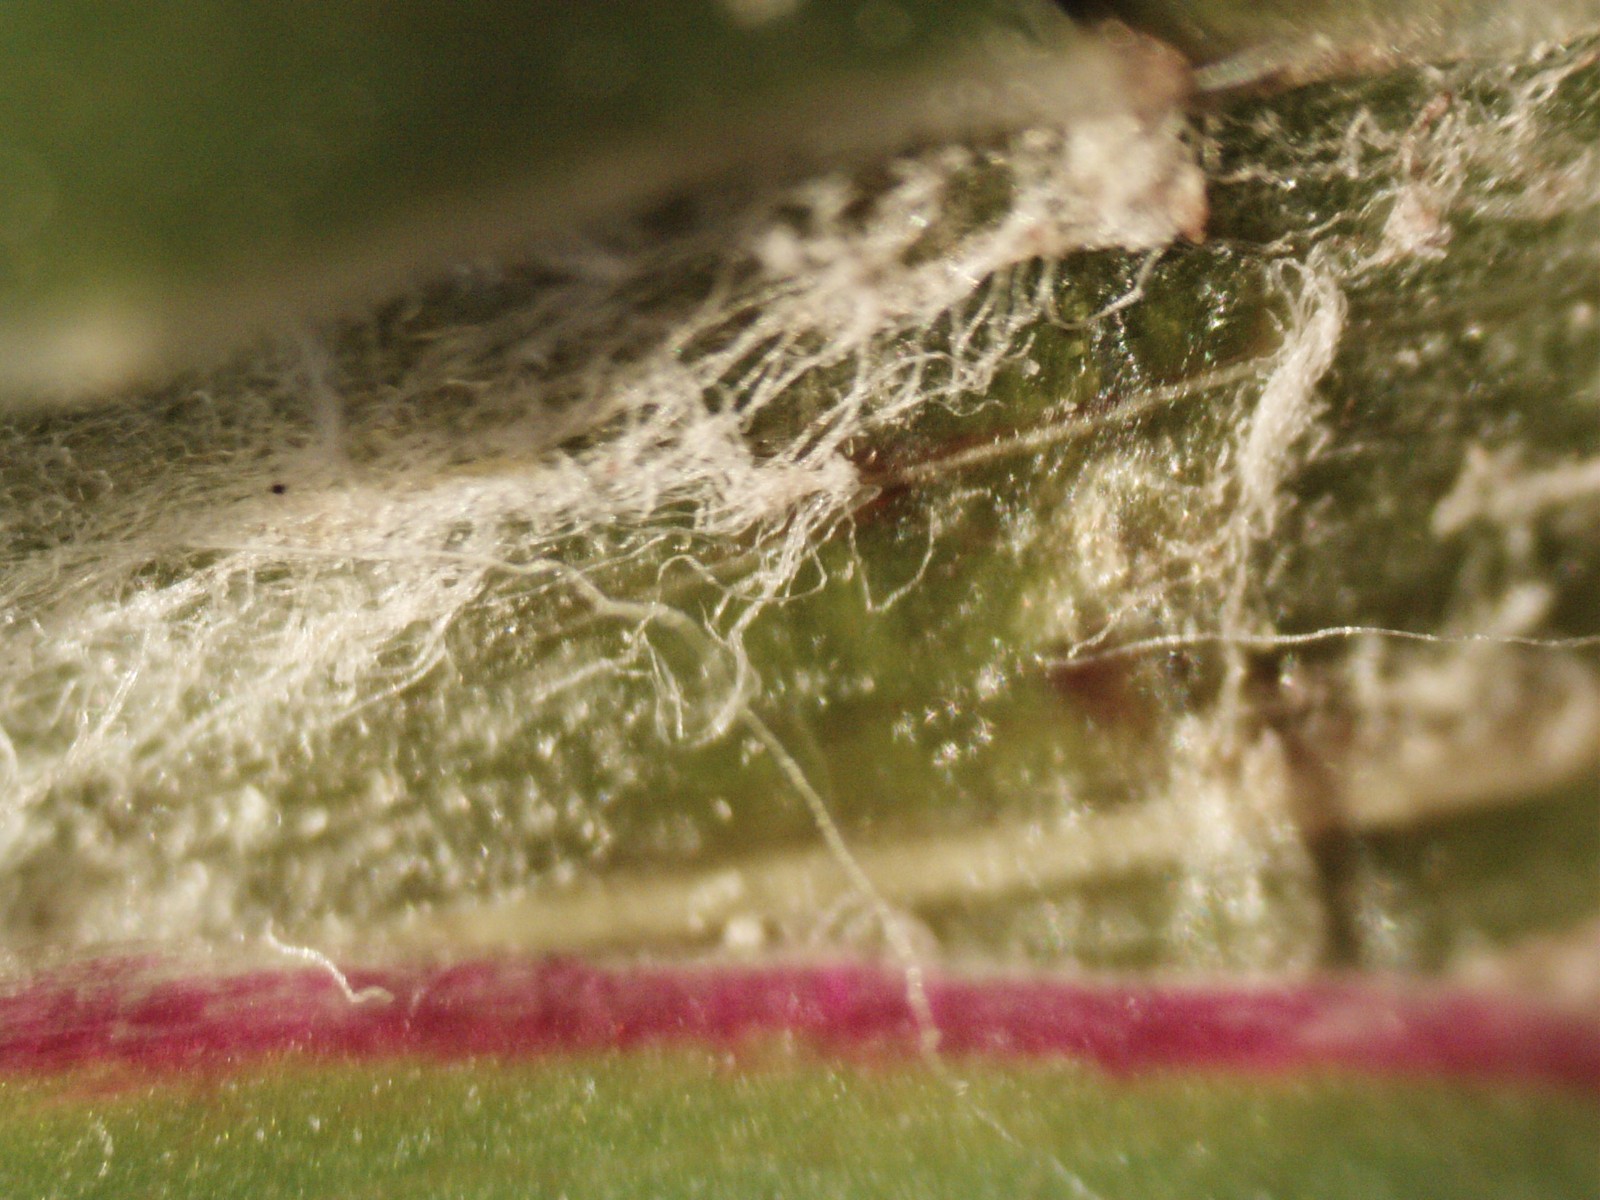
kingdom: Fungi
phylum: Ascomycota
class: Leotiomycetes
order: Helotiales
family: Erysiphaceae
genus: Golovinomyces
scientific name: Golovinomyces cichoracearum
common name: kurvblomst-meldug
